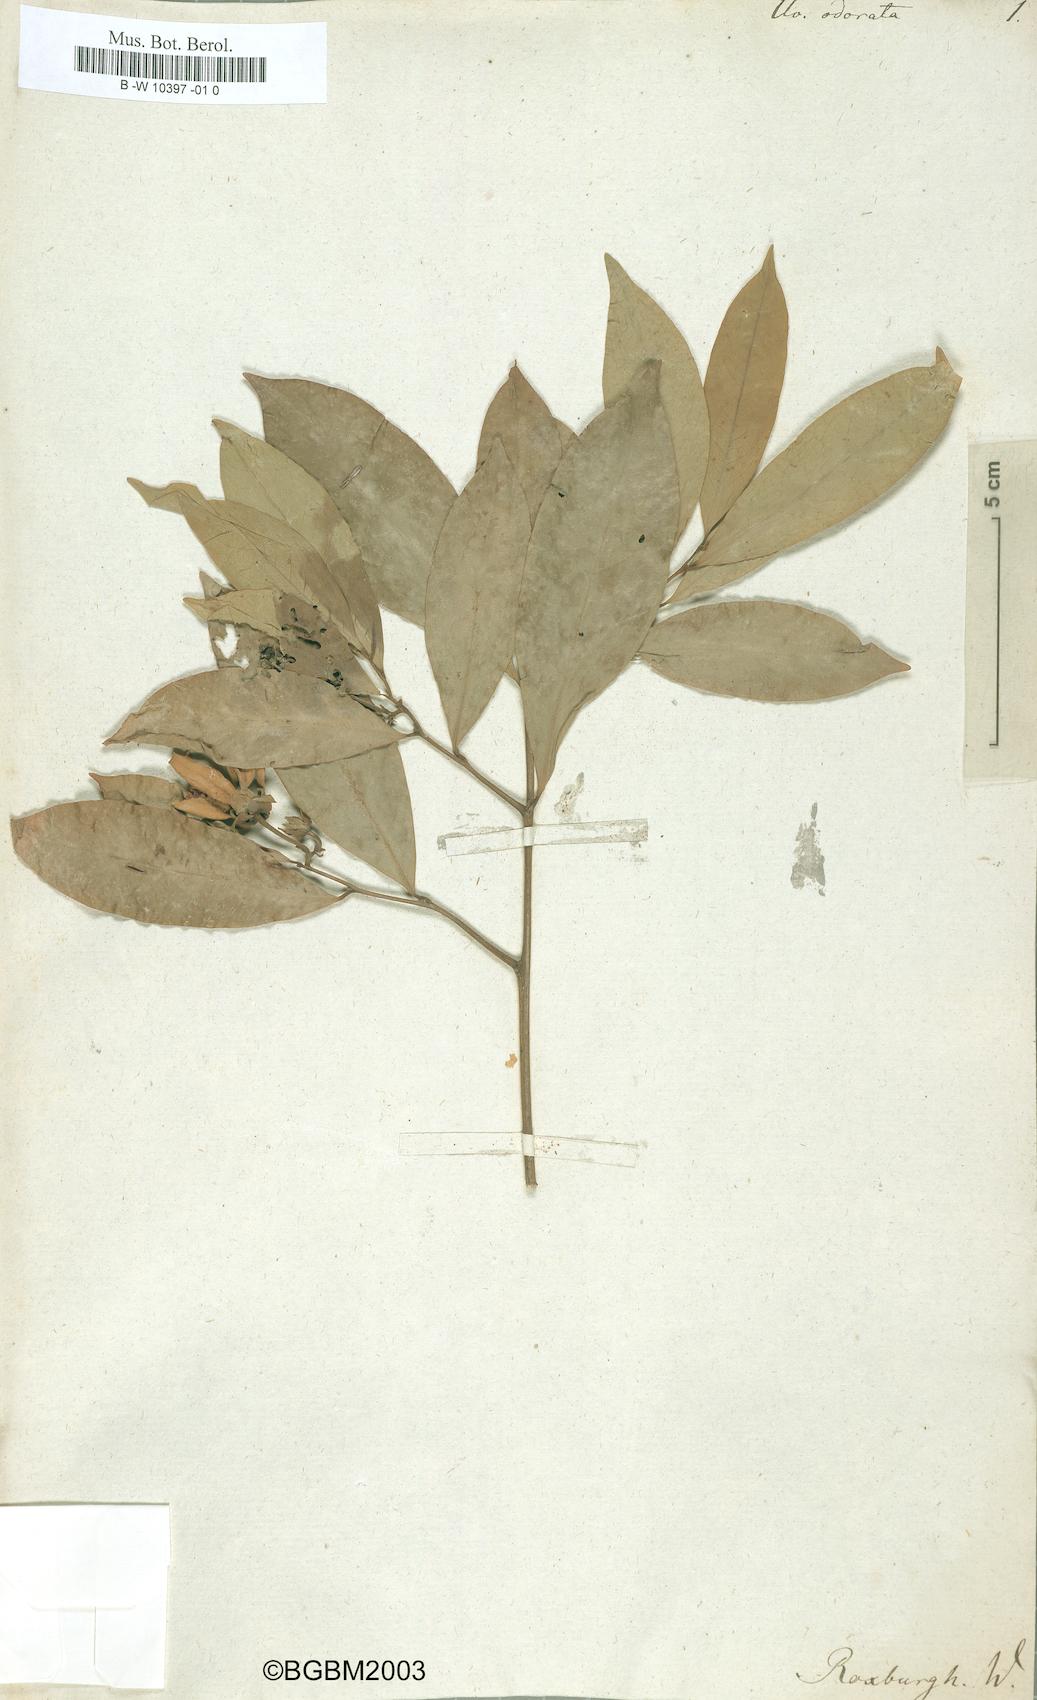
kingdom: Plantae
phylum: Tracheophyta
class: Magnoliopsida
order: Magnoliales
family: Annonaceae
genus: Cananga
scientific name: Cananga odorata
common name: Cananga tree
